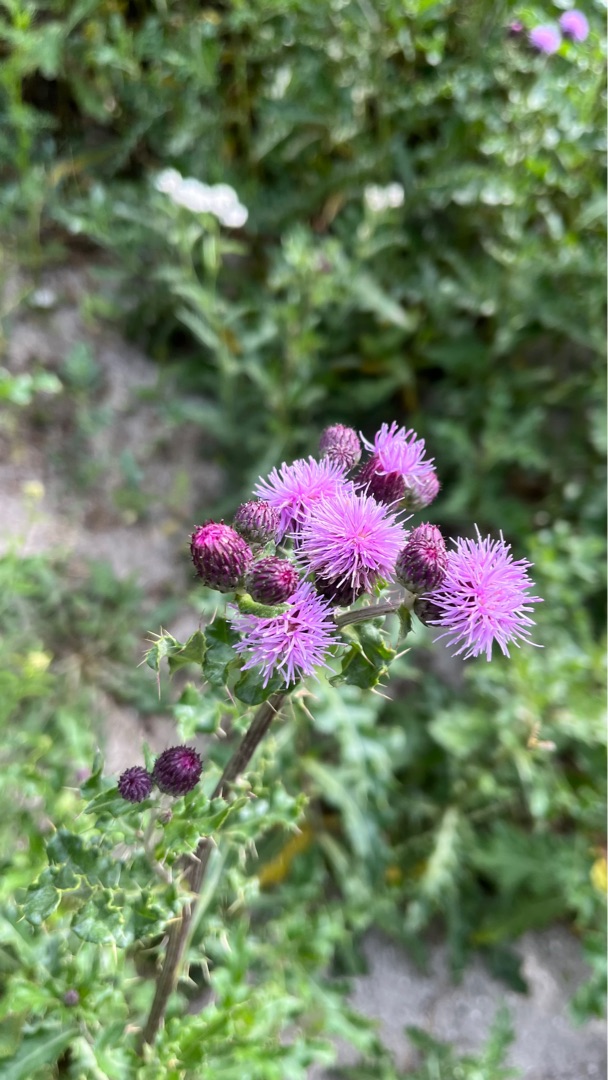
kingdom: Plantae
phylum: Tracheophyta
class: Magnoliopsida
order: Asterales
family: Asteraceae
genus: Cirsium
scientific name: Cirsium arvense
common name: Ager-tidsel
